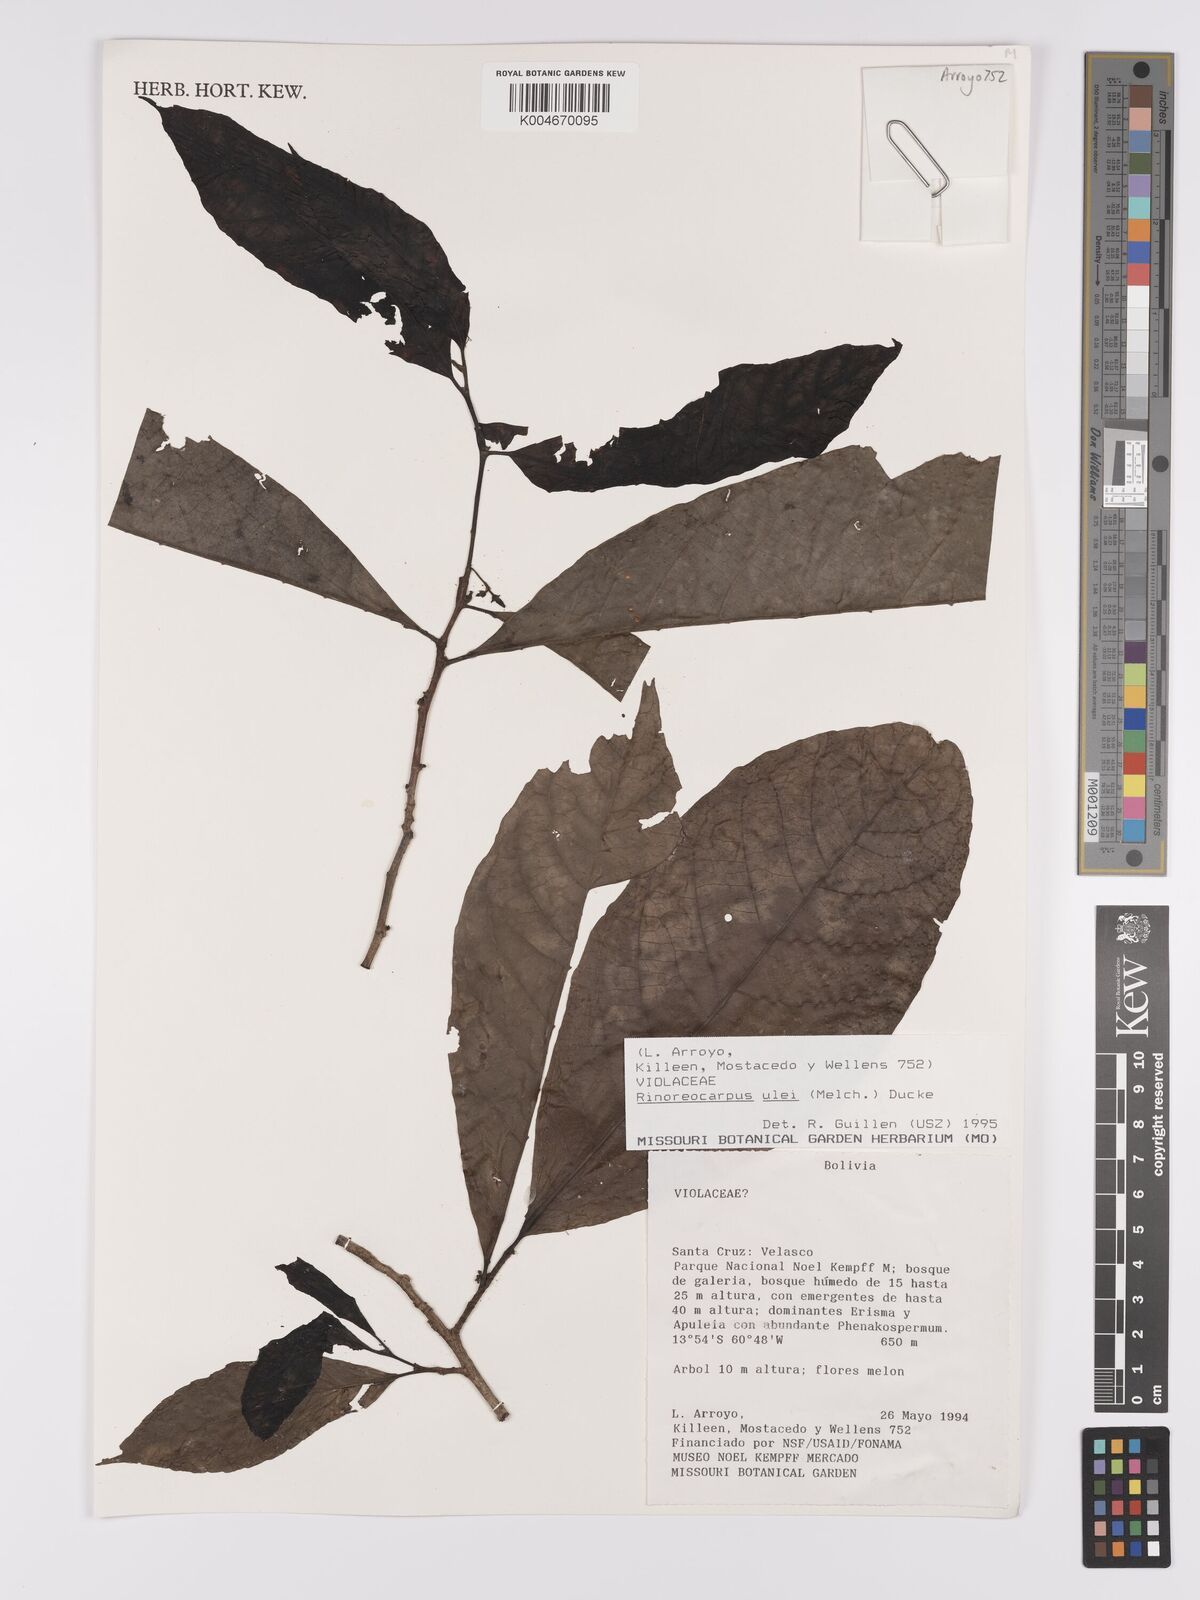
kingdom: Plantae
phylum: Tracheophyta
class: Magnoliopsida
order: Malpighiales
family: Violaceae
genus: Rinoreocarpus
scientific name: Rinoreocarpus ulei
